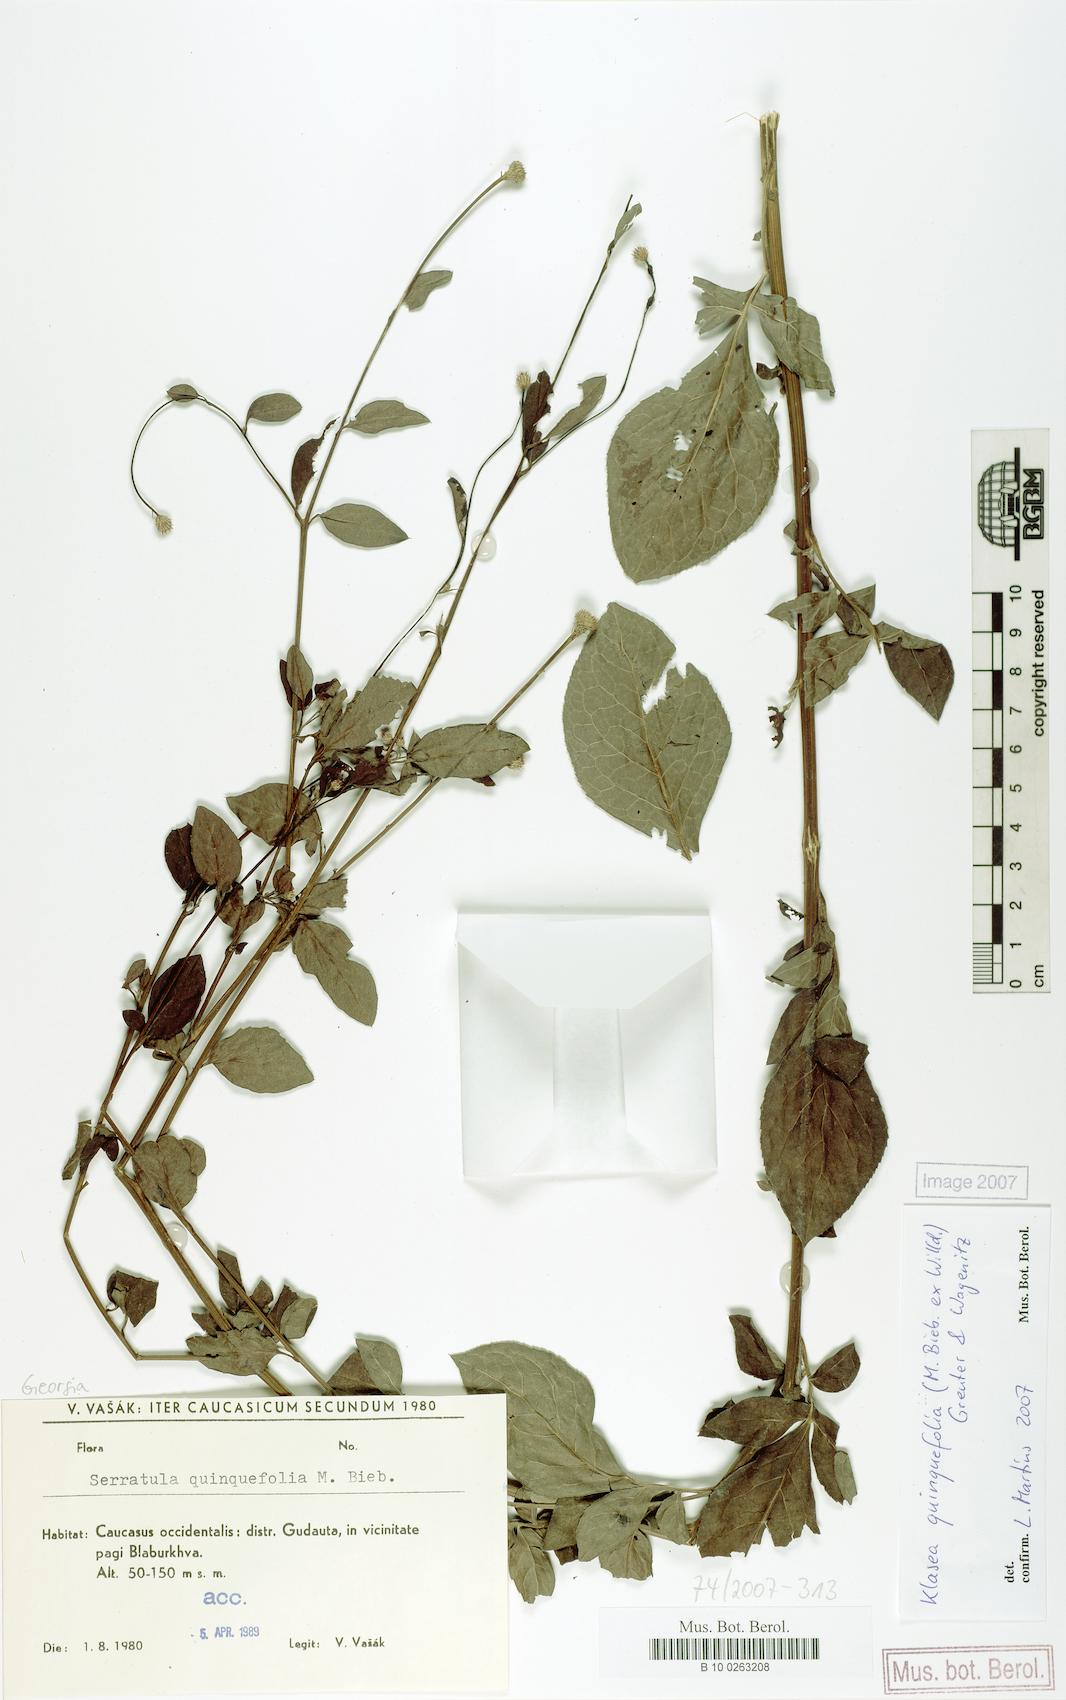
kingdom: Plantae
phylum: Tracheophyta
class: Magnoliopsida
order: Asterales
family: Asteraceae
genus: Klasea
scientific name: Klasea quinquefolia
